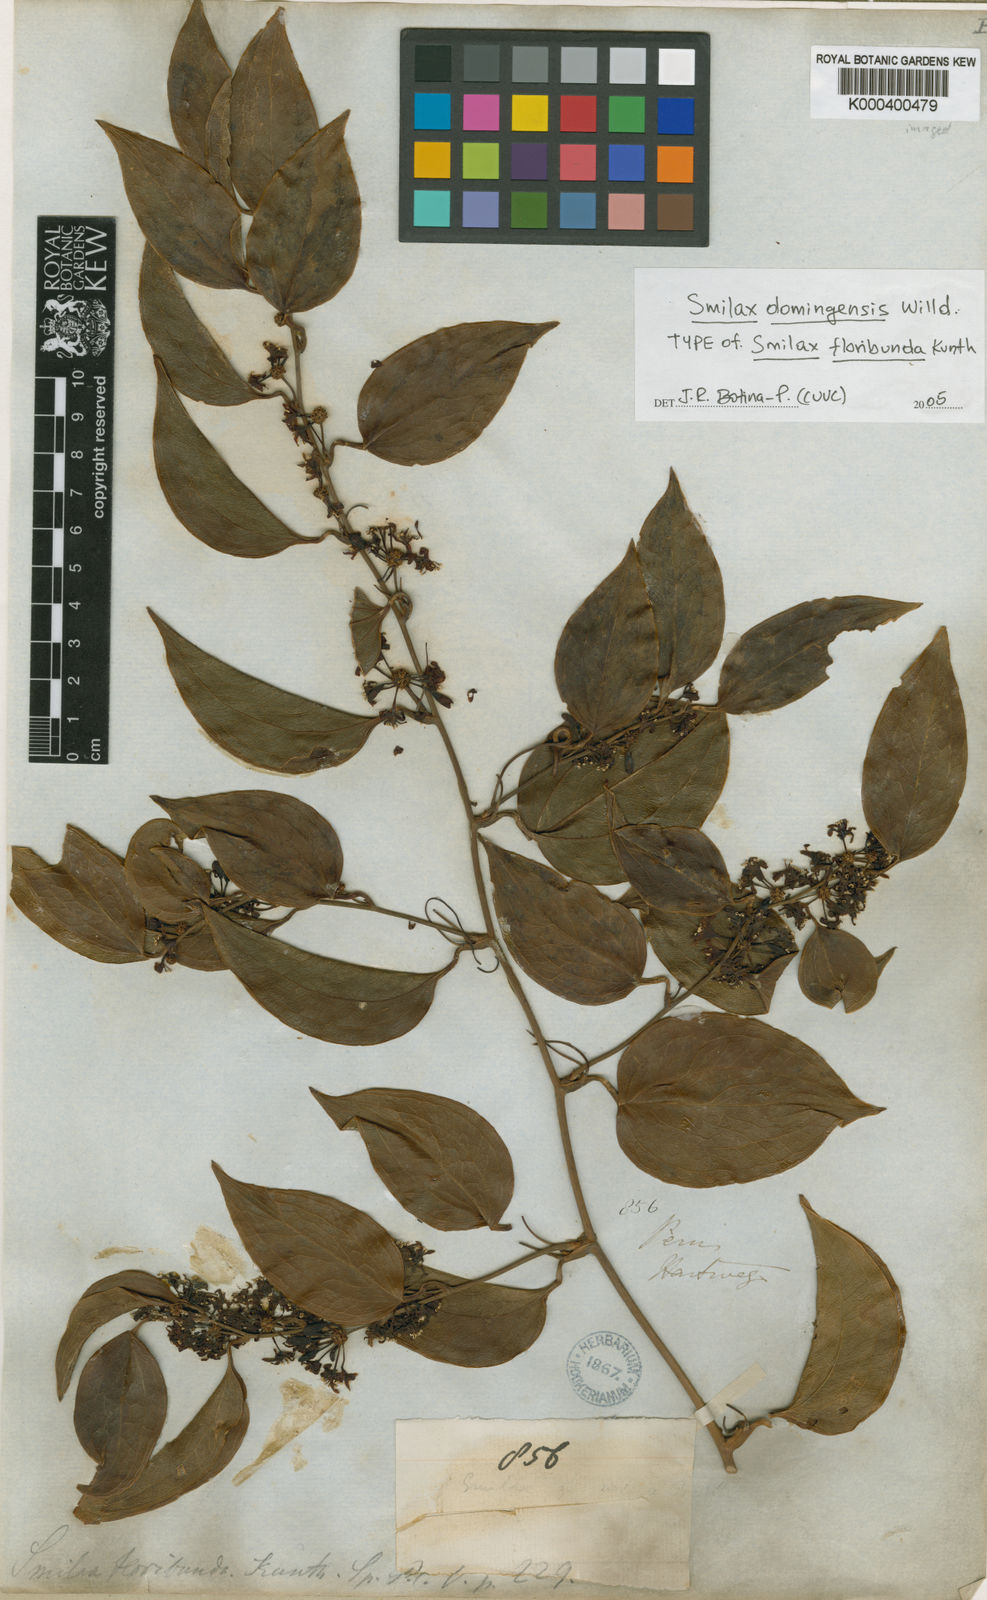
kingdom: Plantae
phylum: Tracheophyta
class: Liliopsida
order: Liliales
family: Smilacaceae
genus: Smilax
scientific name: Smilax domingensis
